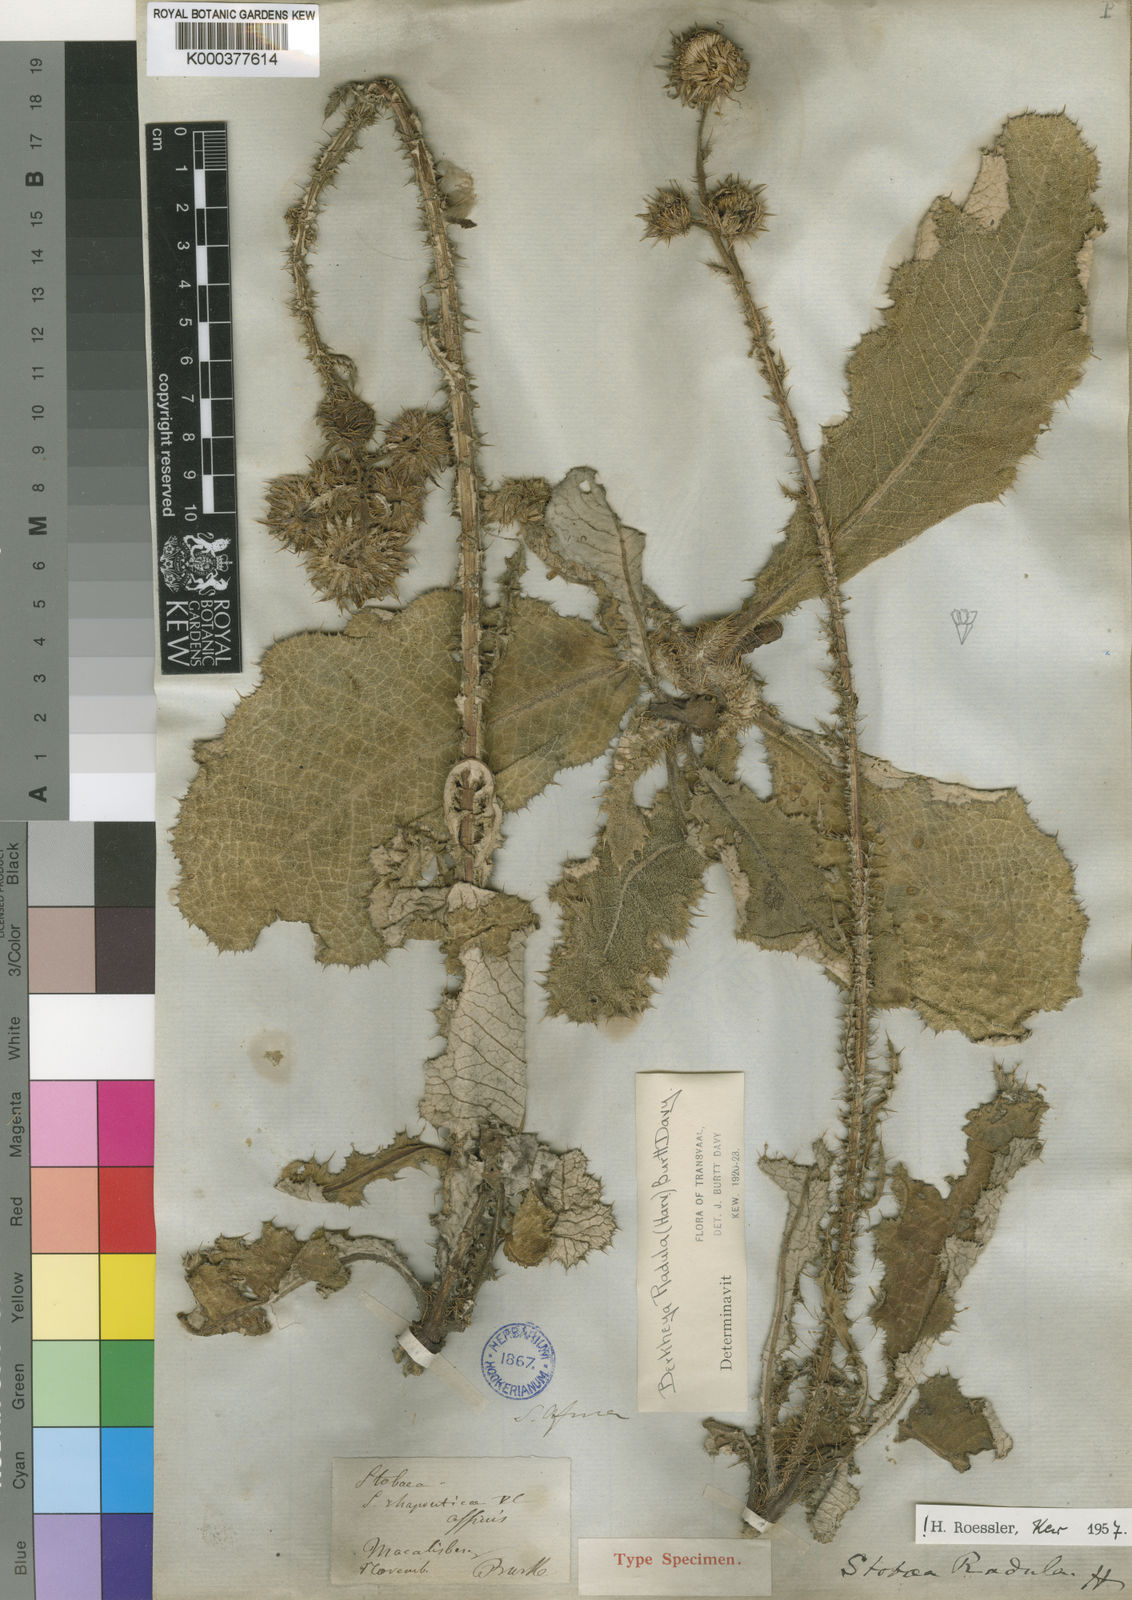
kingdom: Plantae
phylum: Tracheophyta
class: Magnoliopsida
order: Asterales
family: Asteraceae
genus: Berkheya
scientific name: Berkheya radula
